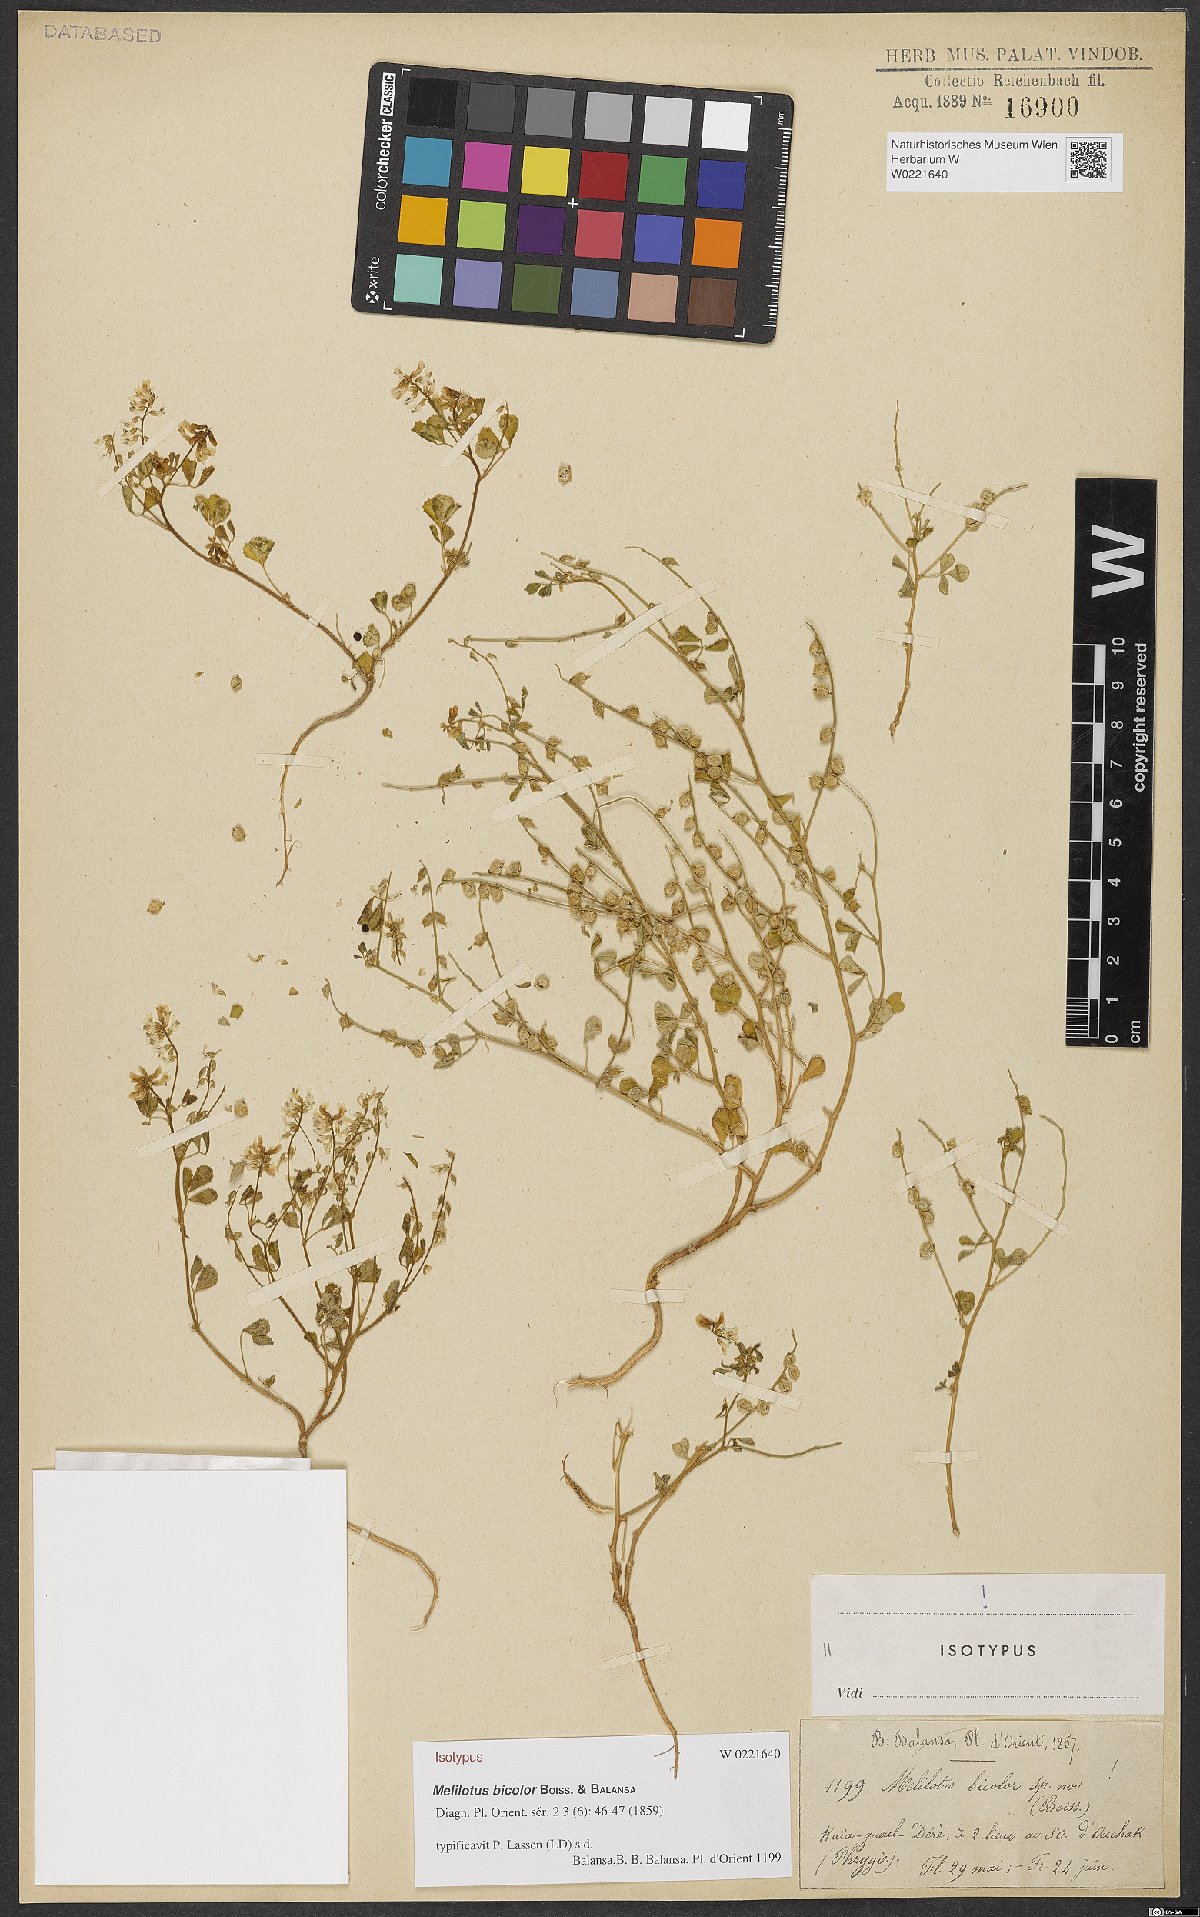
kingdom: Plantae
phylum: Tracheophyta
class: Magnoliopsida
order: Fabales
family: Fabaceae
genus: Melilotus
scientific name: Melilotus bicolor
